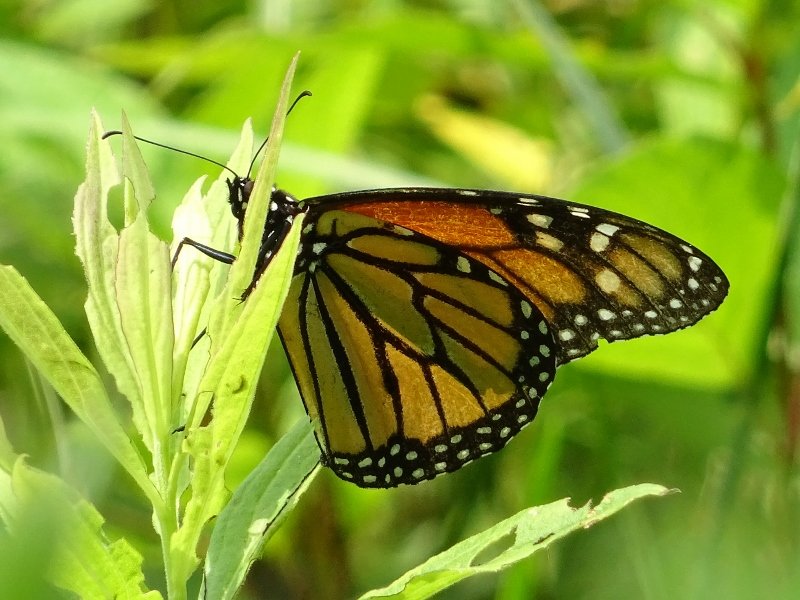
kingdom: Animalia
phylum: Arthropoda
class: Insecta
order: Lepidoptera
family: Nymphalidae
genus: Danaus
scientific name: Danaus plexippus
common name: Monarch
